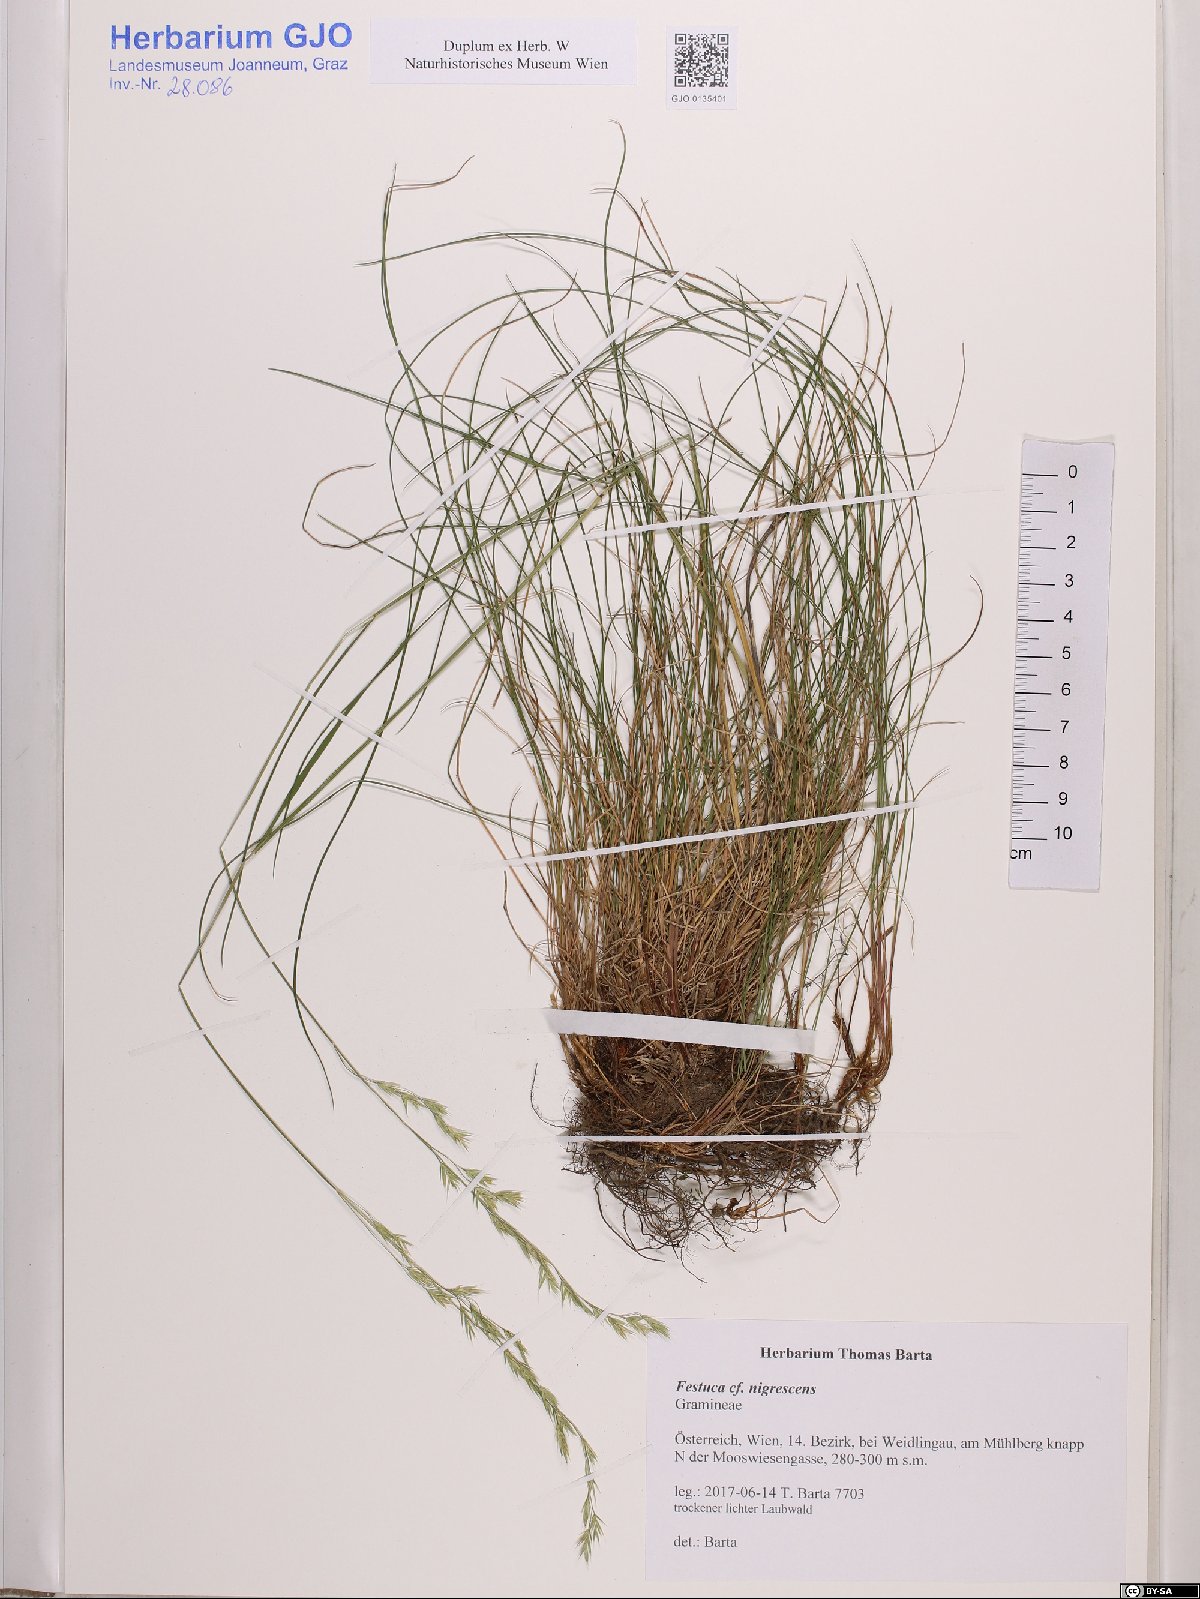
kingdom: Plantae
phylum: Tracheophyta
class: Liliopsida
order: Poales
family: Poaceae
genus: Festuca
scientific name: Festuca nigrescens
